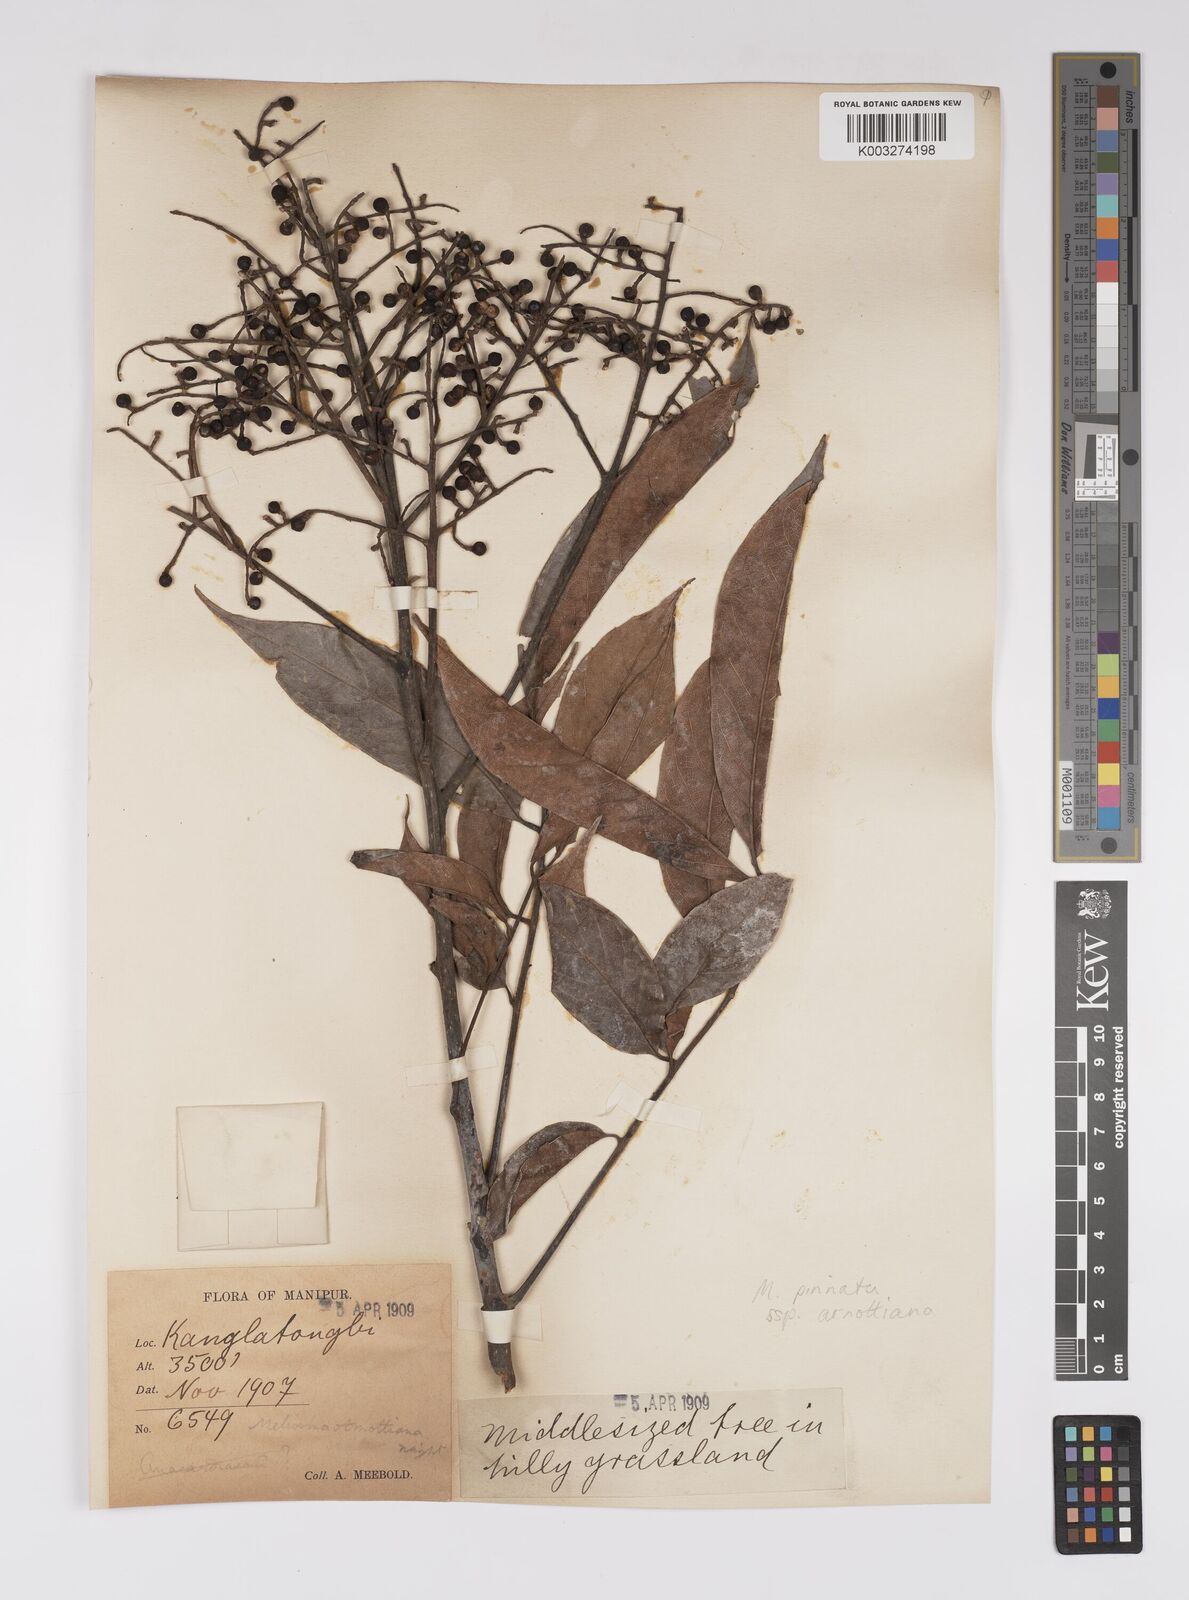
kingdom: Plantae
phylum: Tracheophyta
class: Magnoliopsida
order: Proteales
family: Sabiaceae
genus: Meliosma
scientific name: Meliosma rhoifolia
